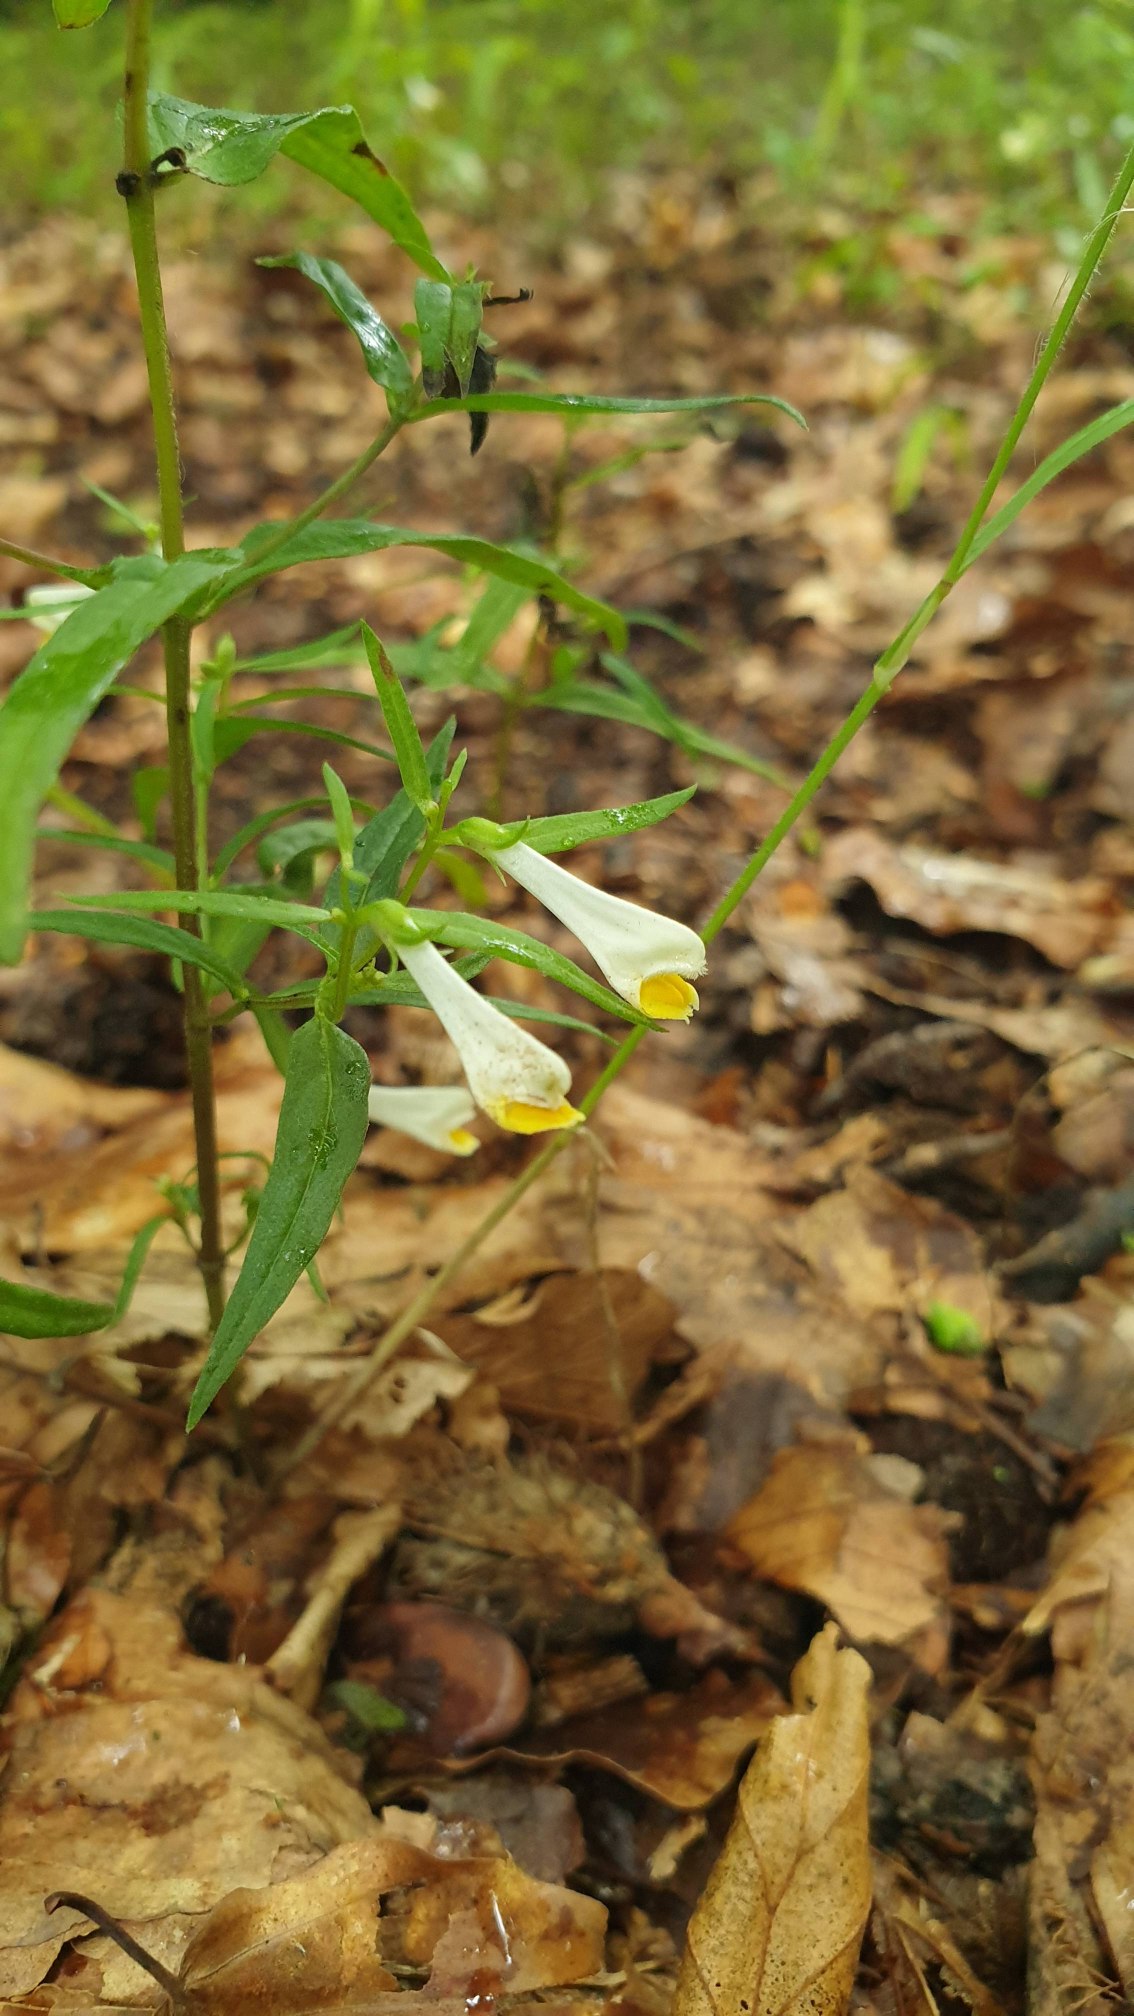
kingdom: Plantae
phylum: Tracheophyta
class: Magnoliopsida
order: Lamiales
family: Orobanchaceae
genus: Melampyrum
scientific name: Melampyrum pratense
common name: Almindelig kohvede
